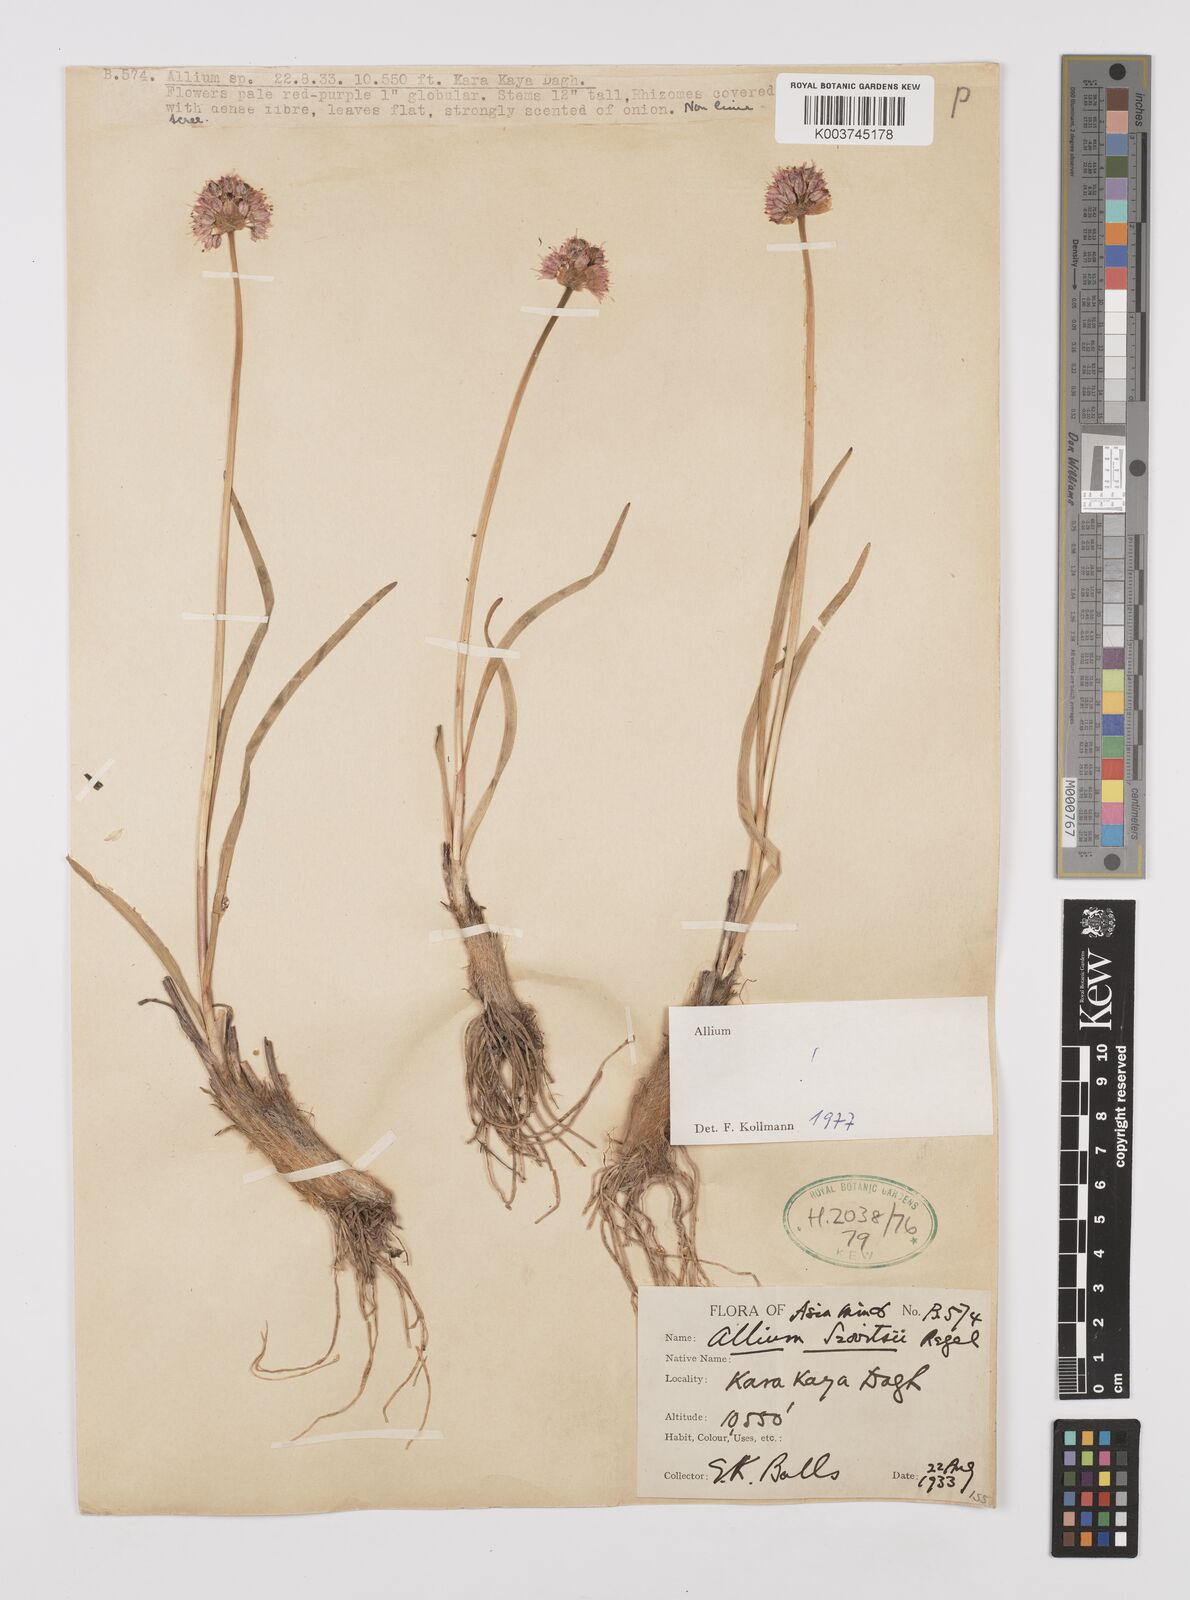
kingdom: Plantae
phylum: Tracheophyta
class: Liliopsida
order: Asparagales
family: Amaryllidaceae
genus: Allium
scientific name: Allium szovitsii
